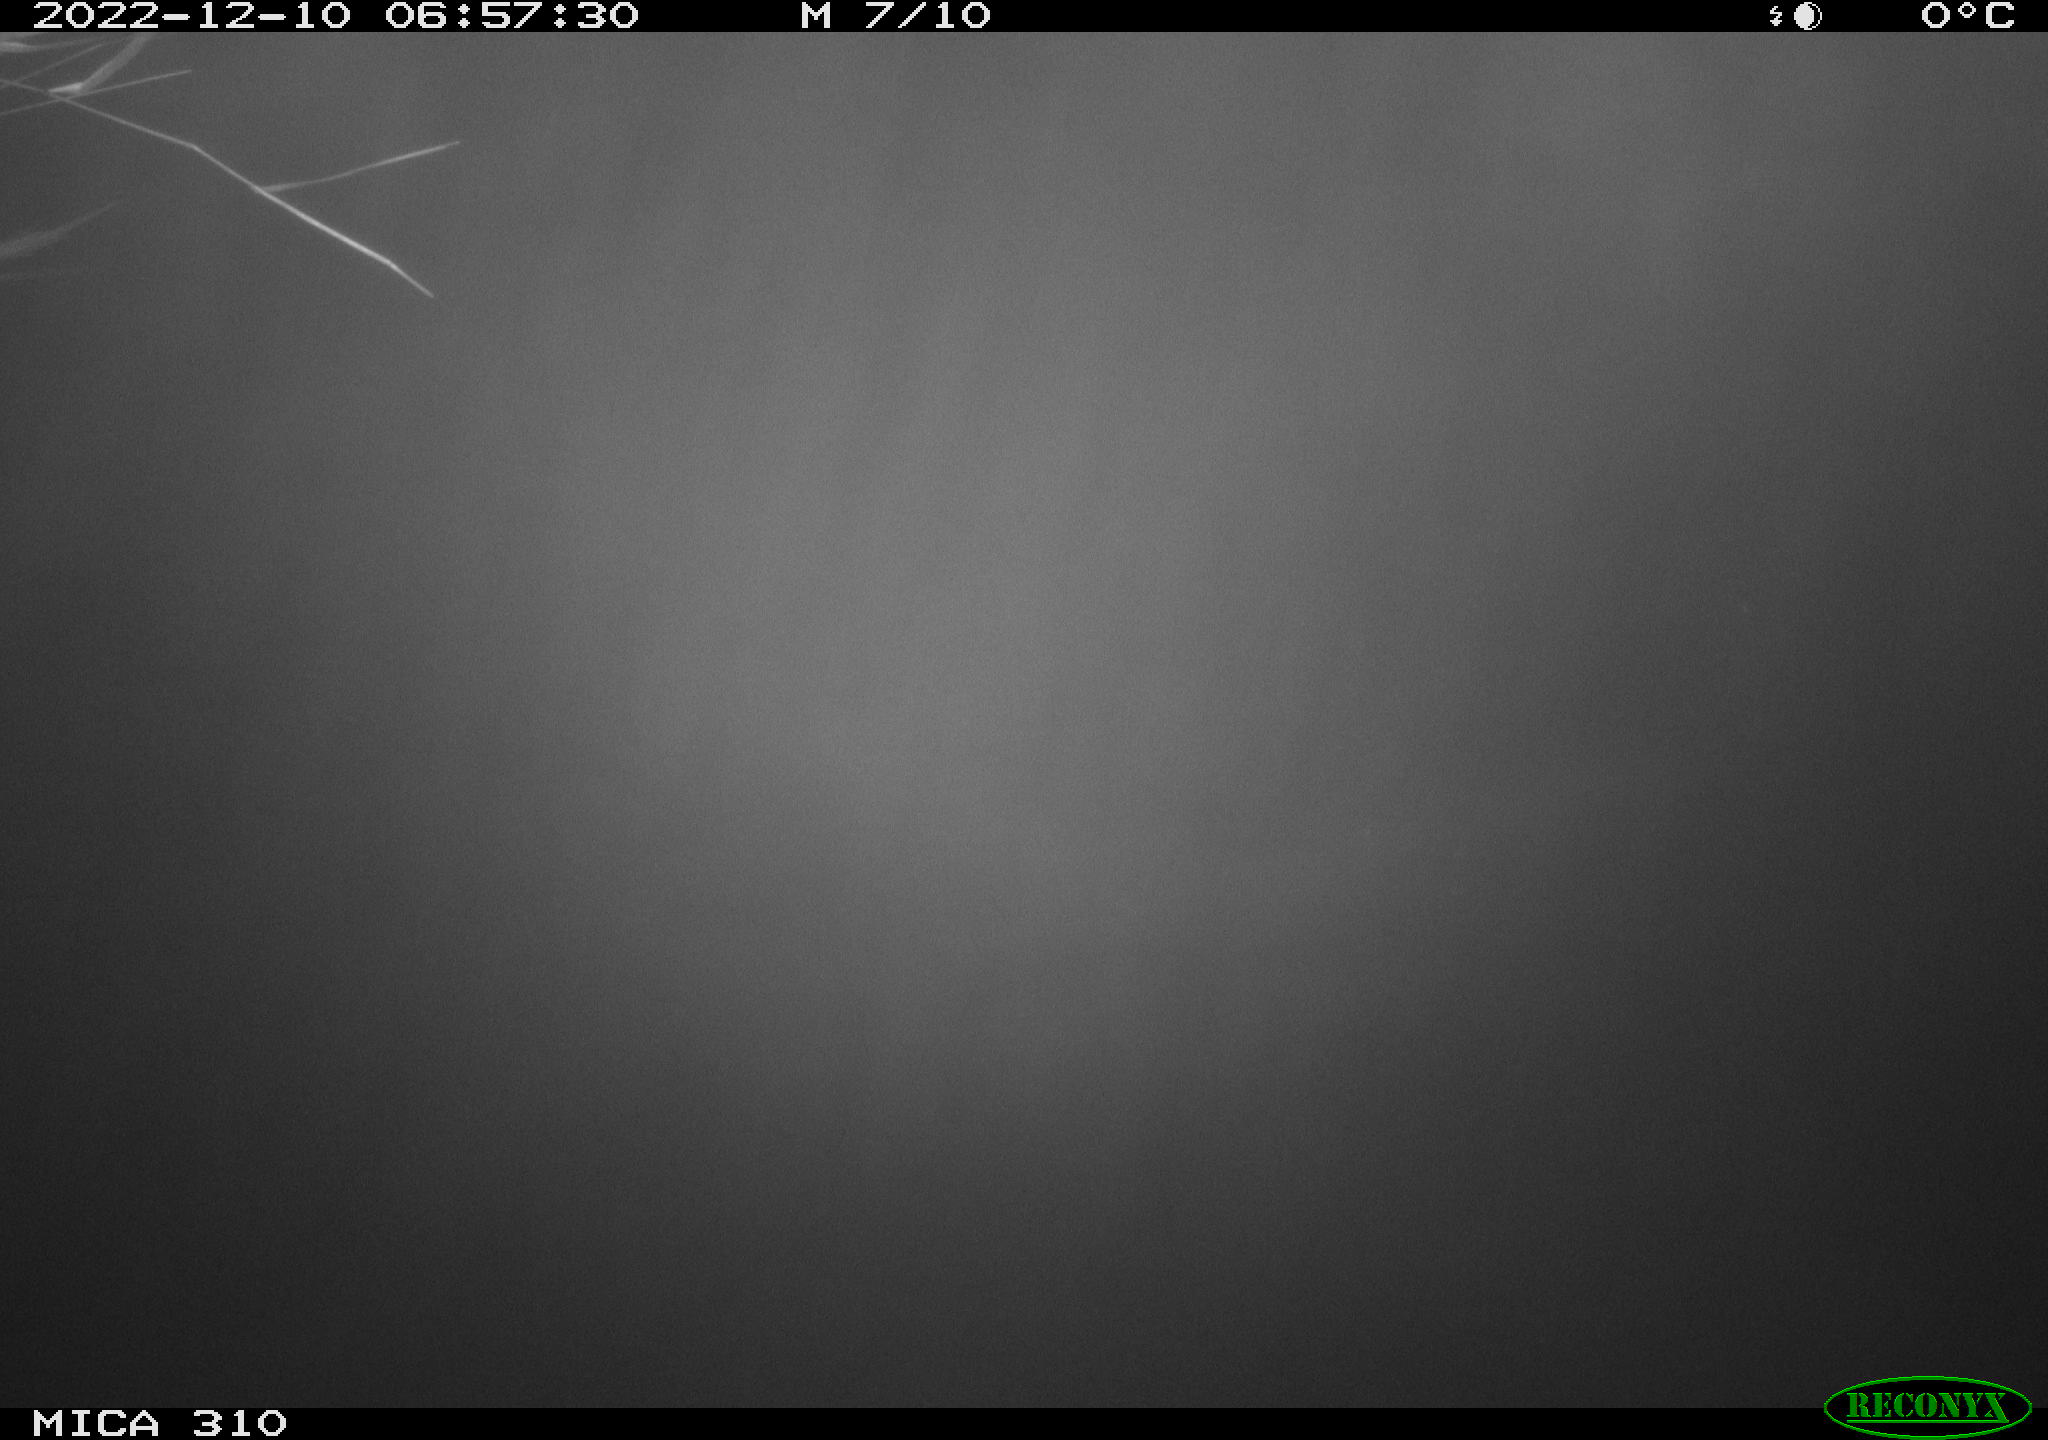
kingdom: Animalia
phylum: Chordata
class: Mammalia
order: Rodentia
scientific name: Rodentia
